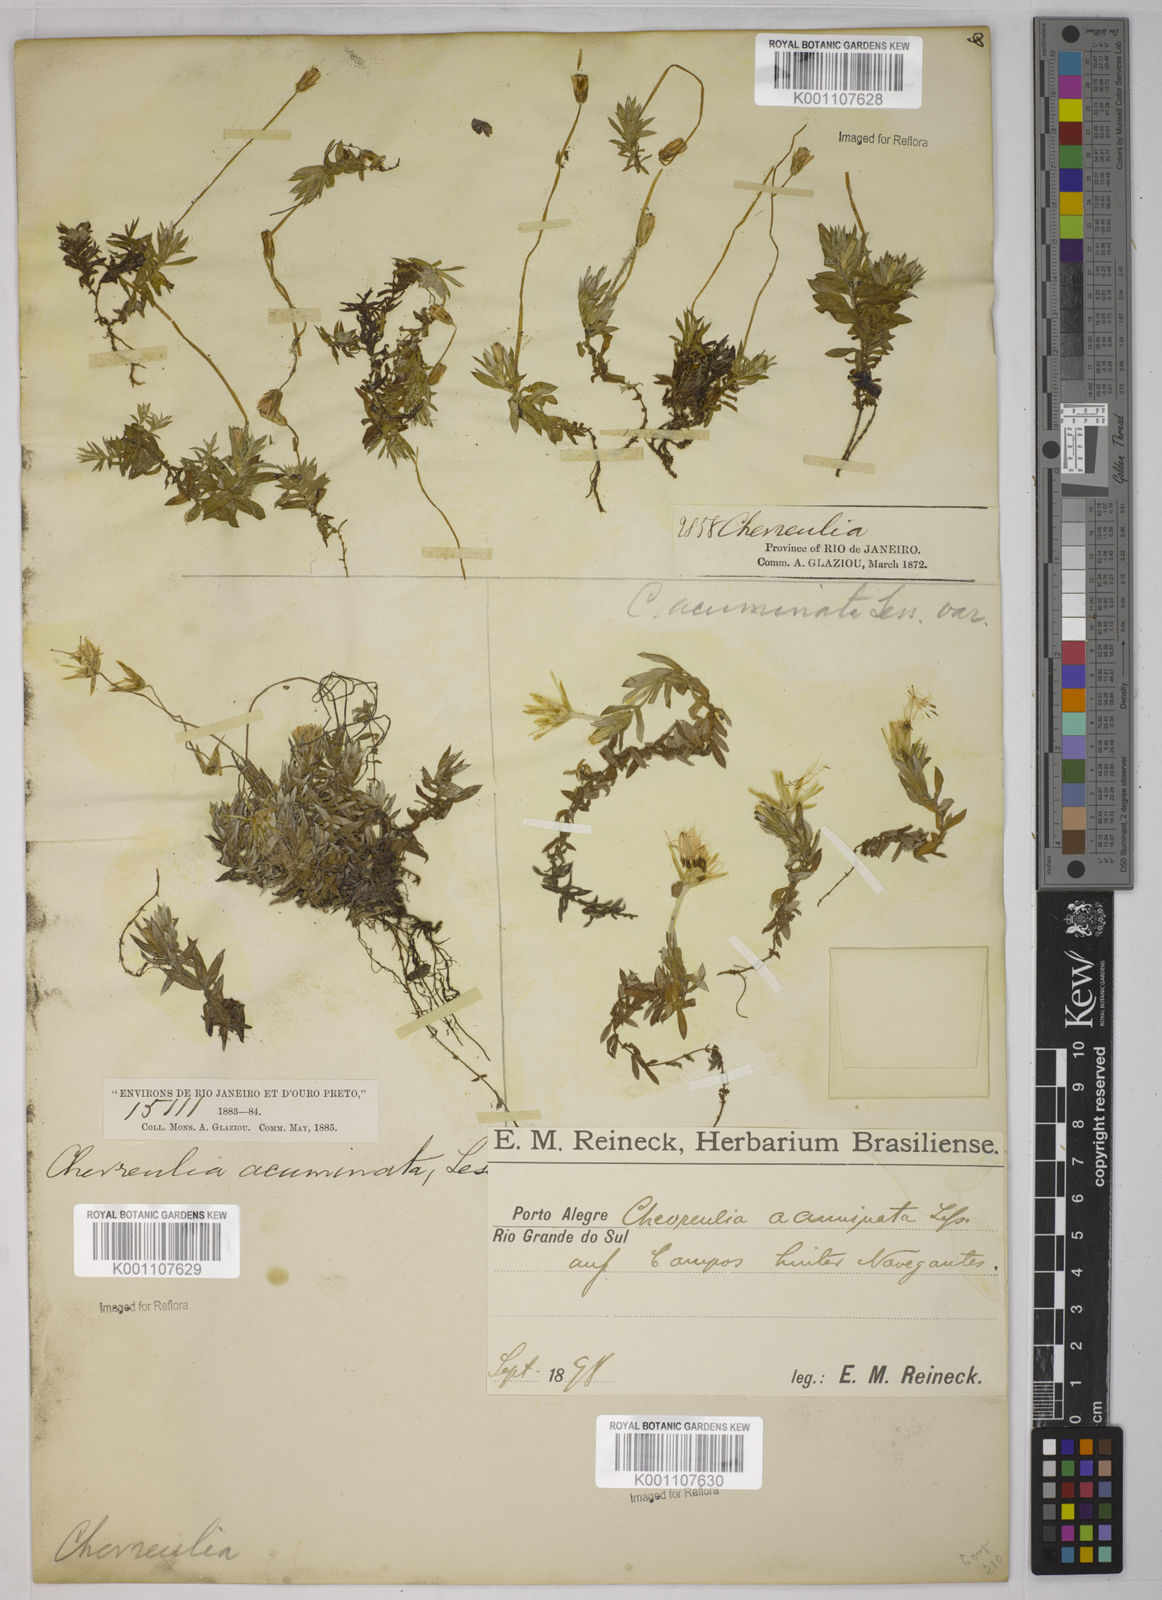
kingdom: Plantae
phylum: Tracheophyta
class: Magnoliopsida
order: Asterales
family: Asteraceae
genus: Chevreulia
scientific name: Chevreulia acuminata
